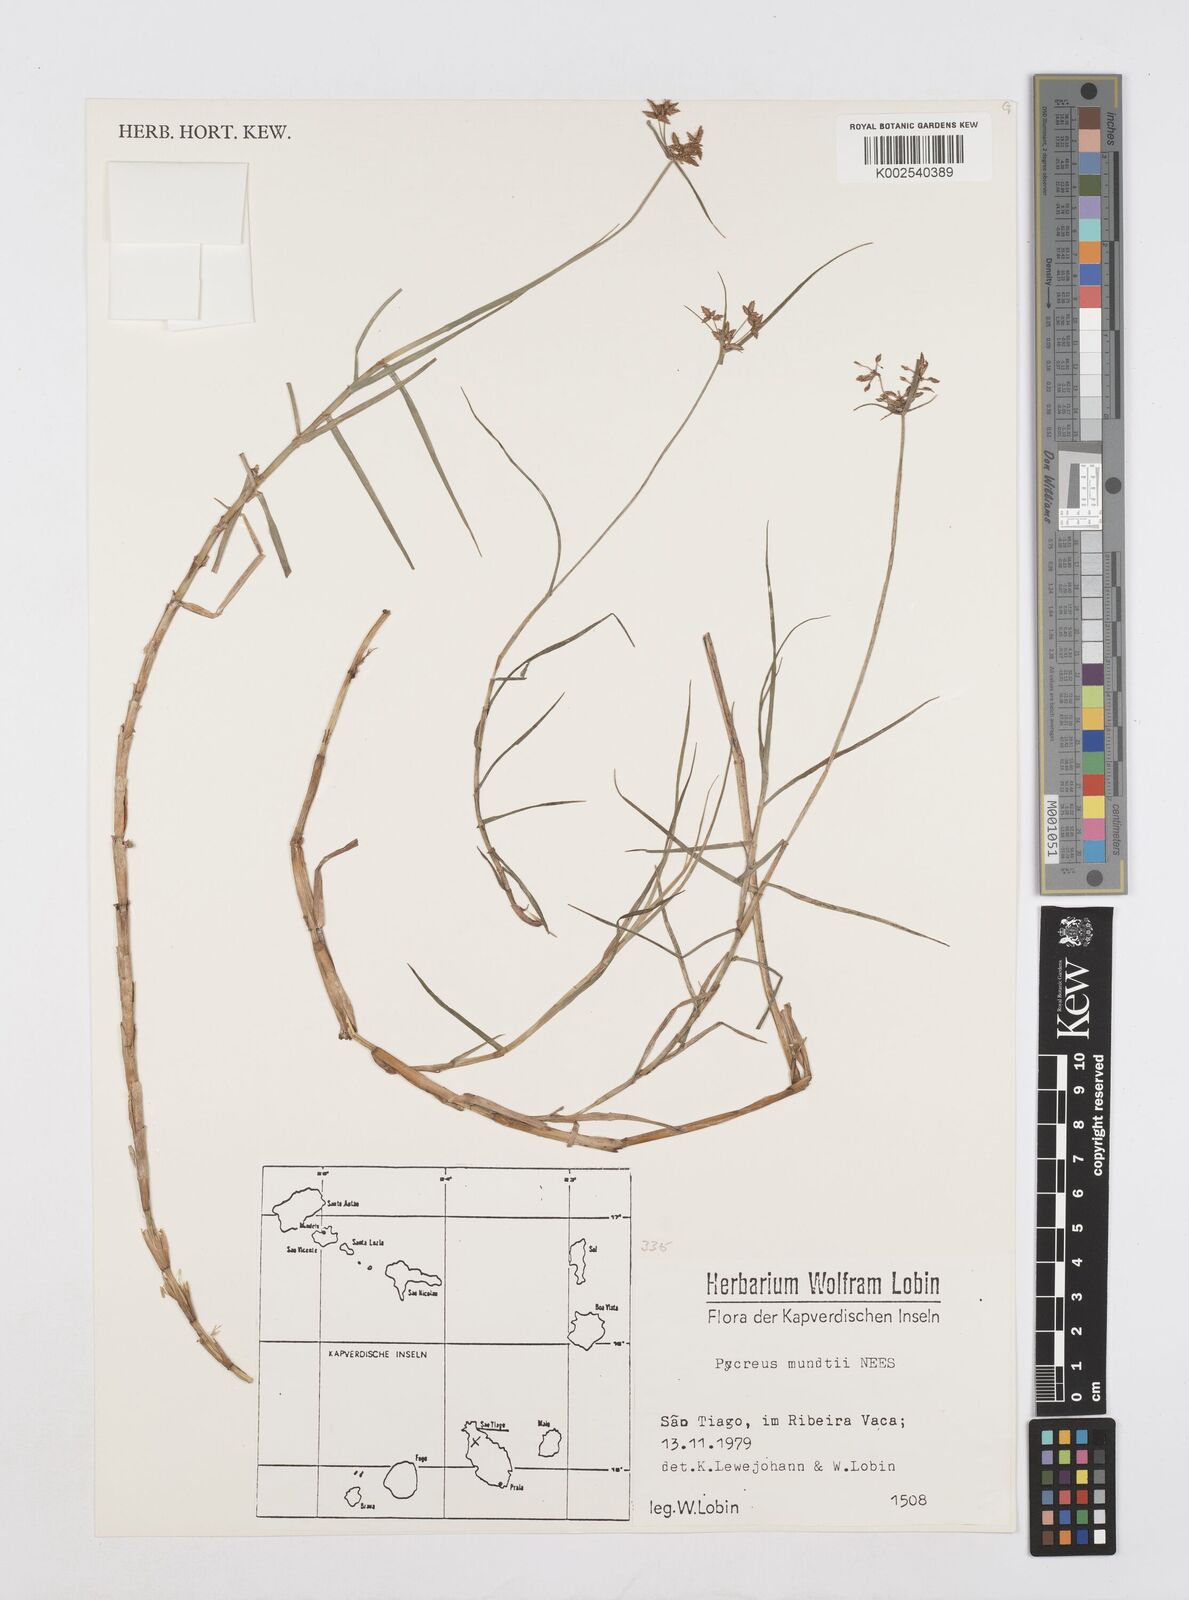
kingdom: Plantae
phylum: Tracheophyta
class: Liliopsida
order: Poales
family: Cyperaceae
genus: Cyperus
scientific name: Cyperus mundii
